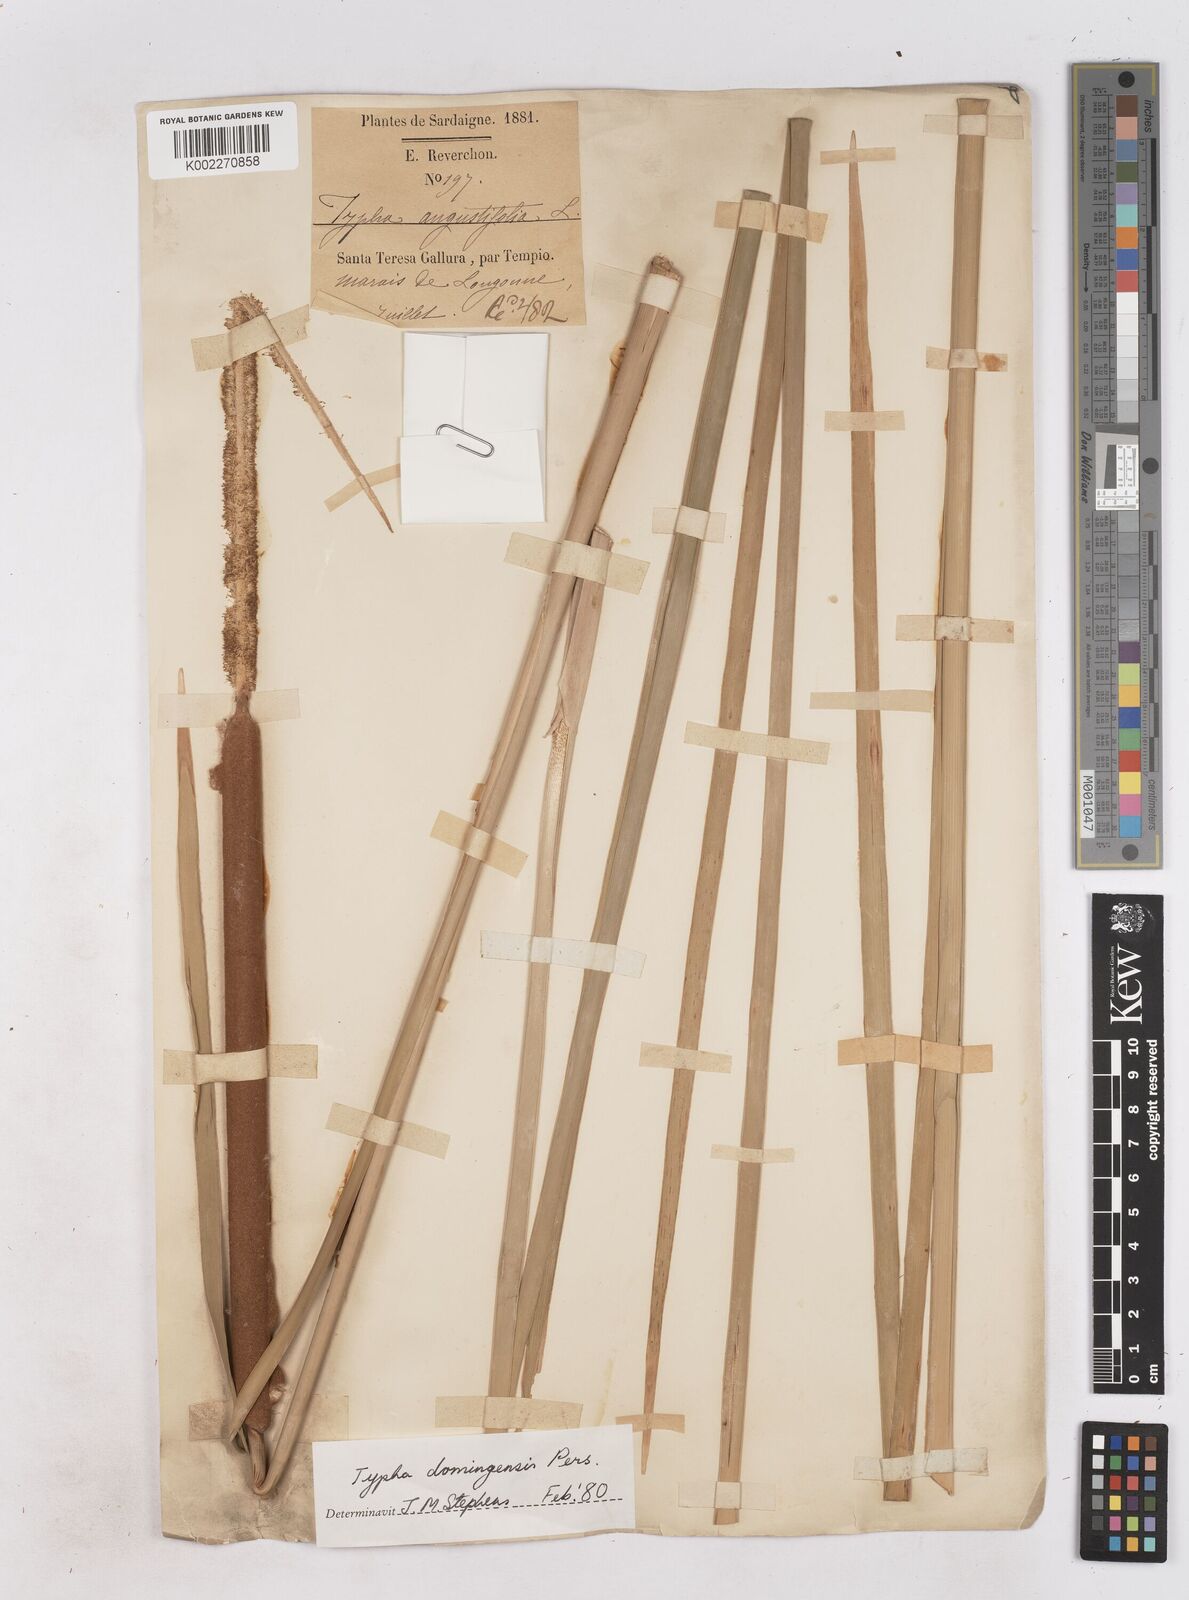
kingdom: Plantae
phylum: Tracheophyta
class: Liliopsida
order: Poales
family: Typhaceae
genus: Typha
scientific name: Typha domingensis
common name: Southern cattail
